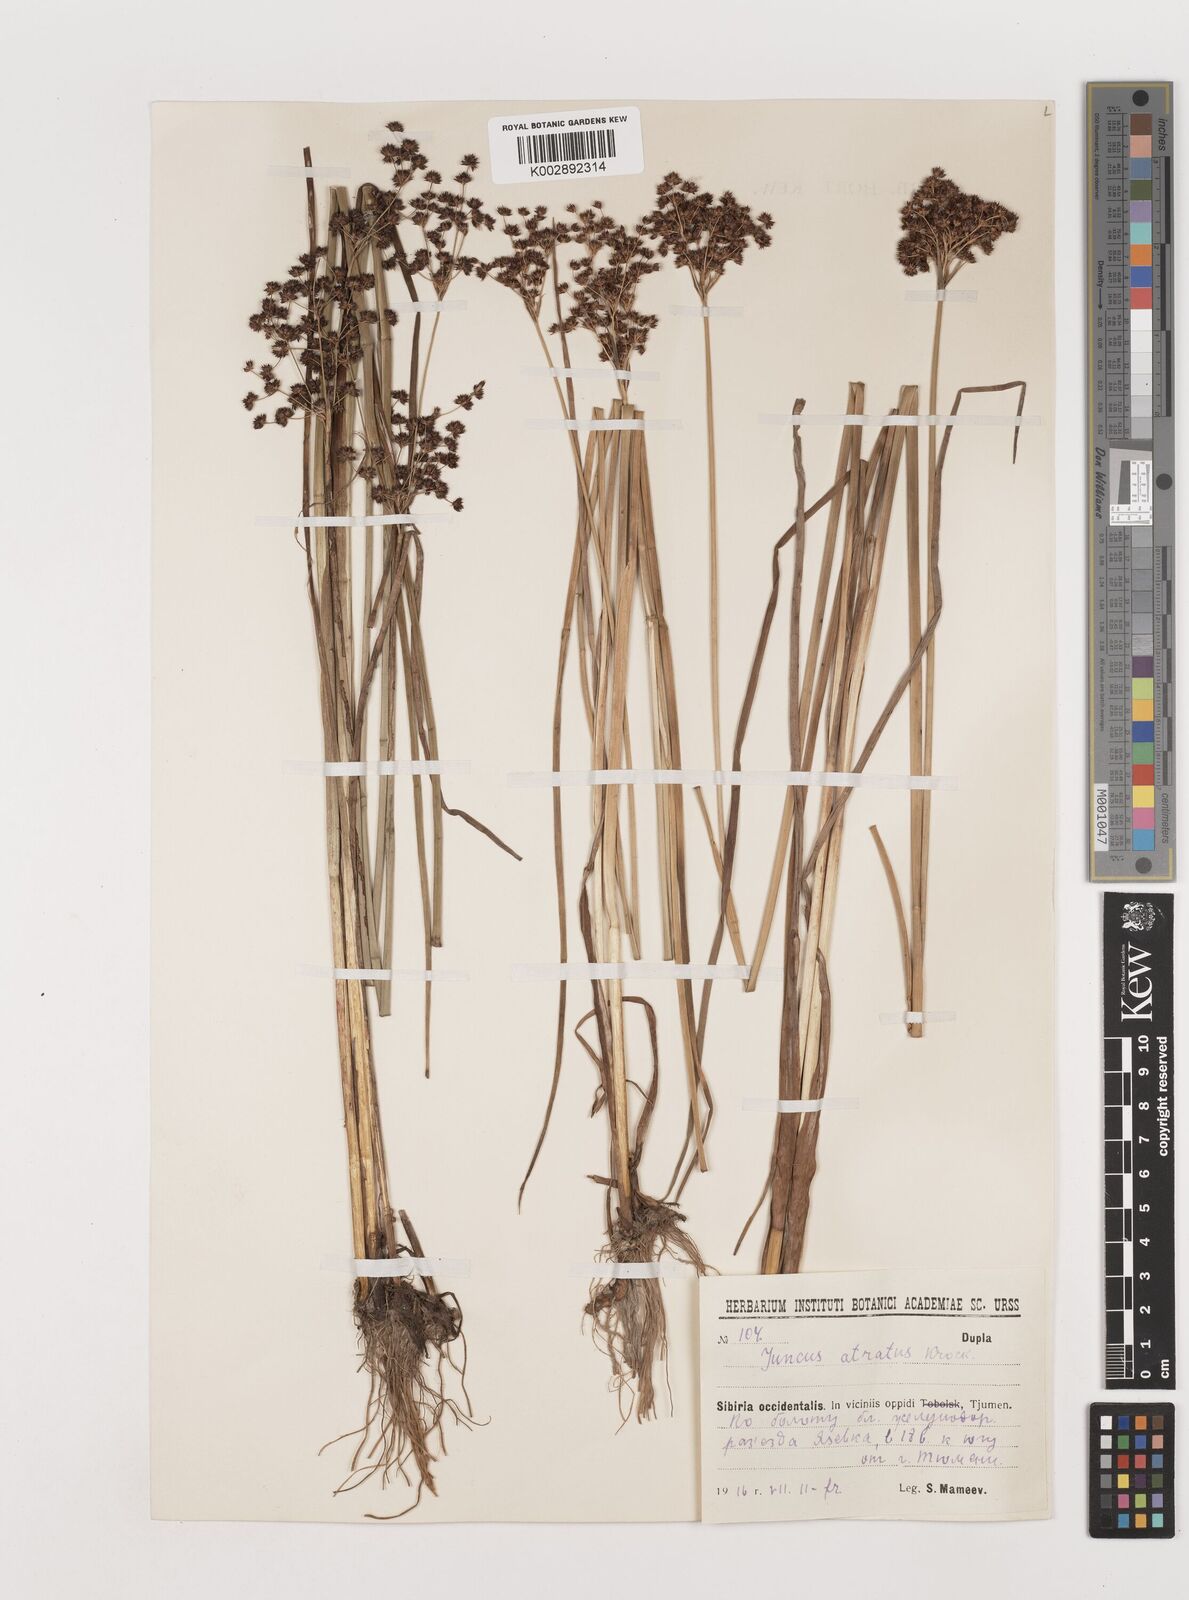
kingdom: Plantae
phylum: Tracheophyta
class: Liliopsida
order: Poales
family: Juncaceae
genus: Juncus
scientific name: Juncus atratus
